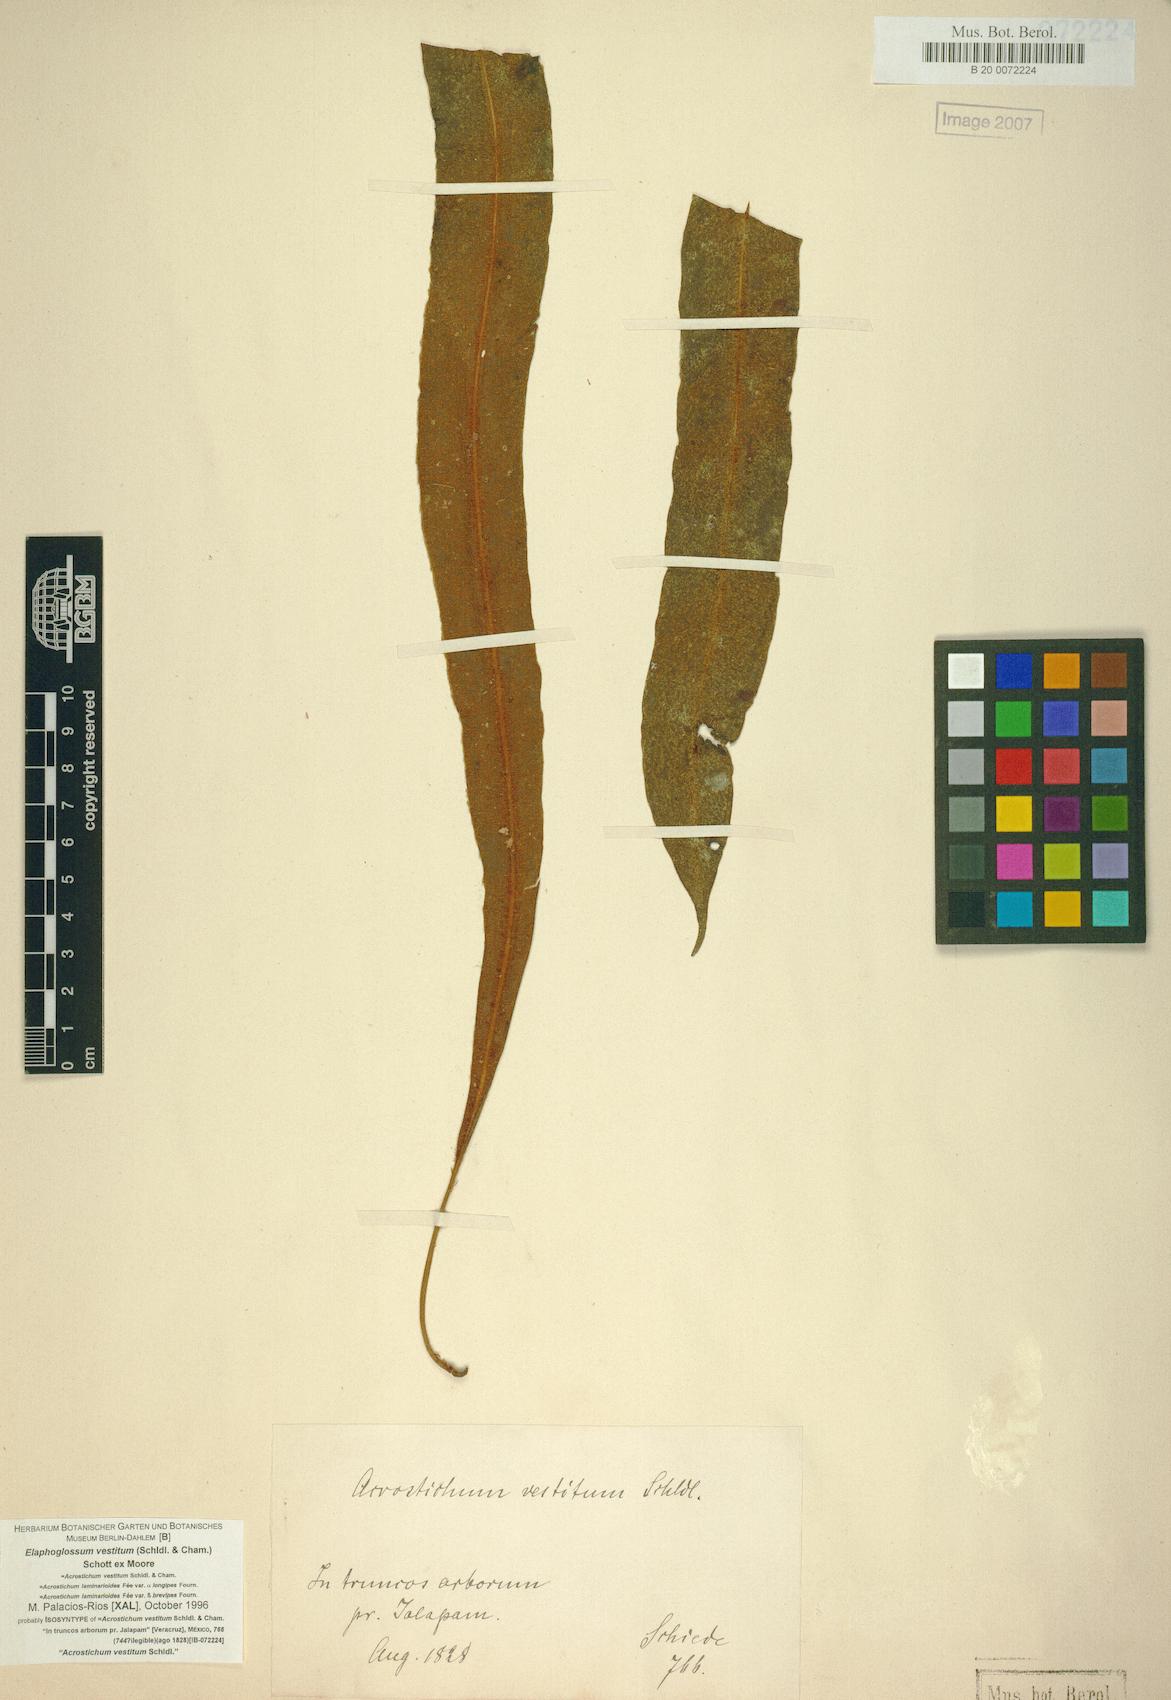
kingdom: Plantae
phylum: Tracheophyta
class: Polypodiopsida
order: Polypodiales
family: Dryopteridaceae
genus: Elaphoglossum
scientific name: Elaphoglossum vestitum
